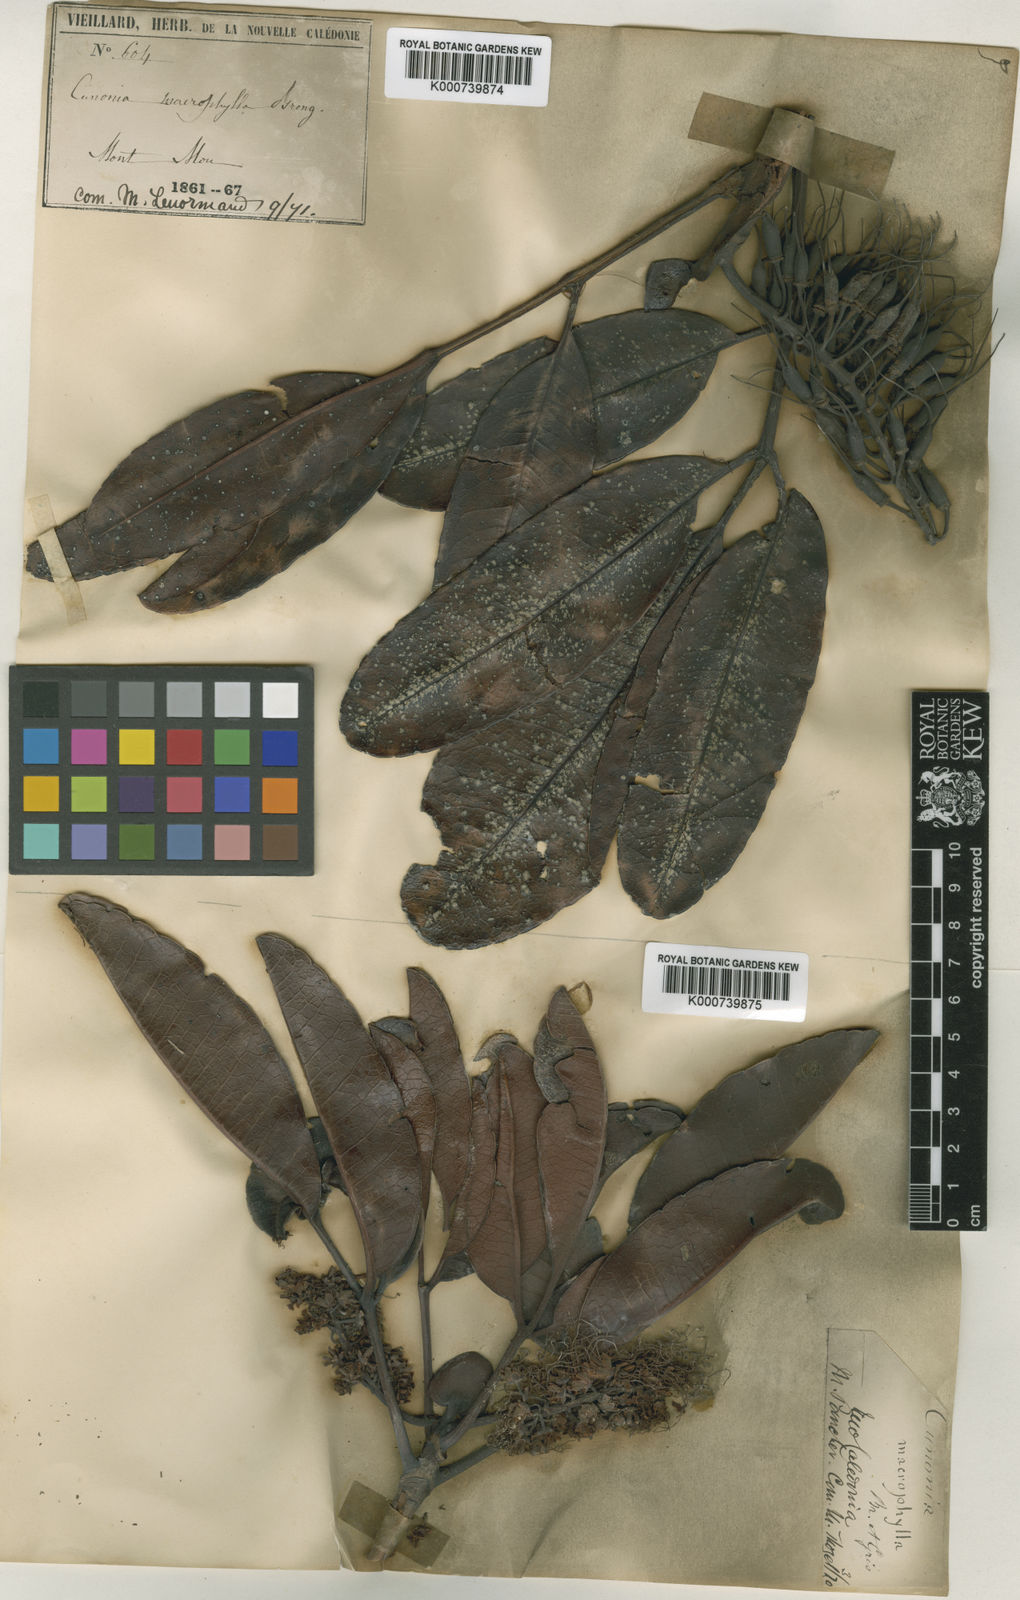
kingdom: Plantae
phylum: Tracheophyta
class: Magnoliopsida
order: Oxalidales
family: Cunoniaceae
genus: Cunonia
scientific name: Cunonia macrophylla
